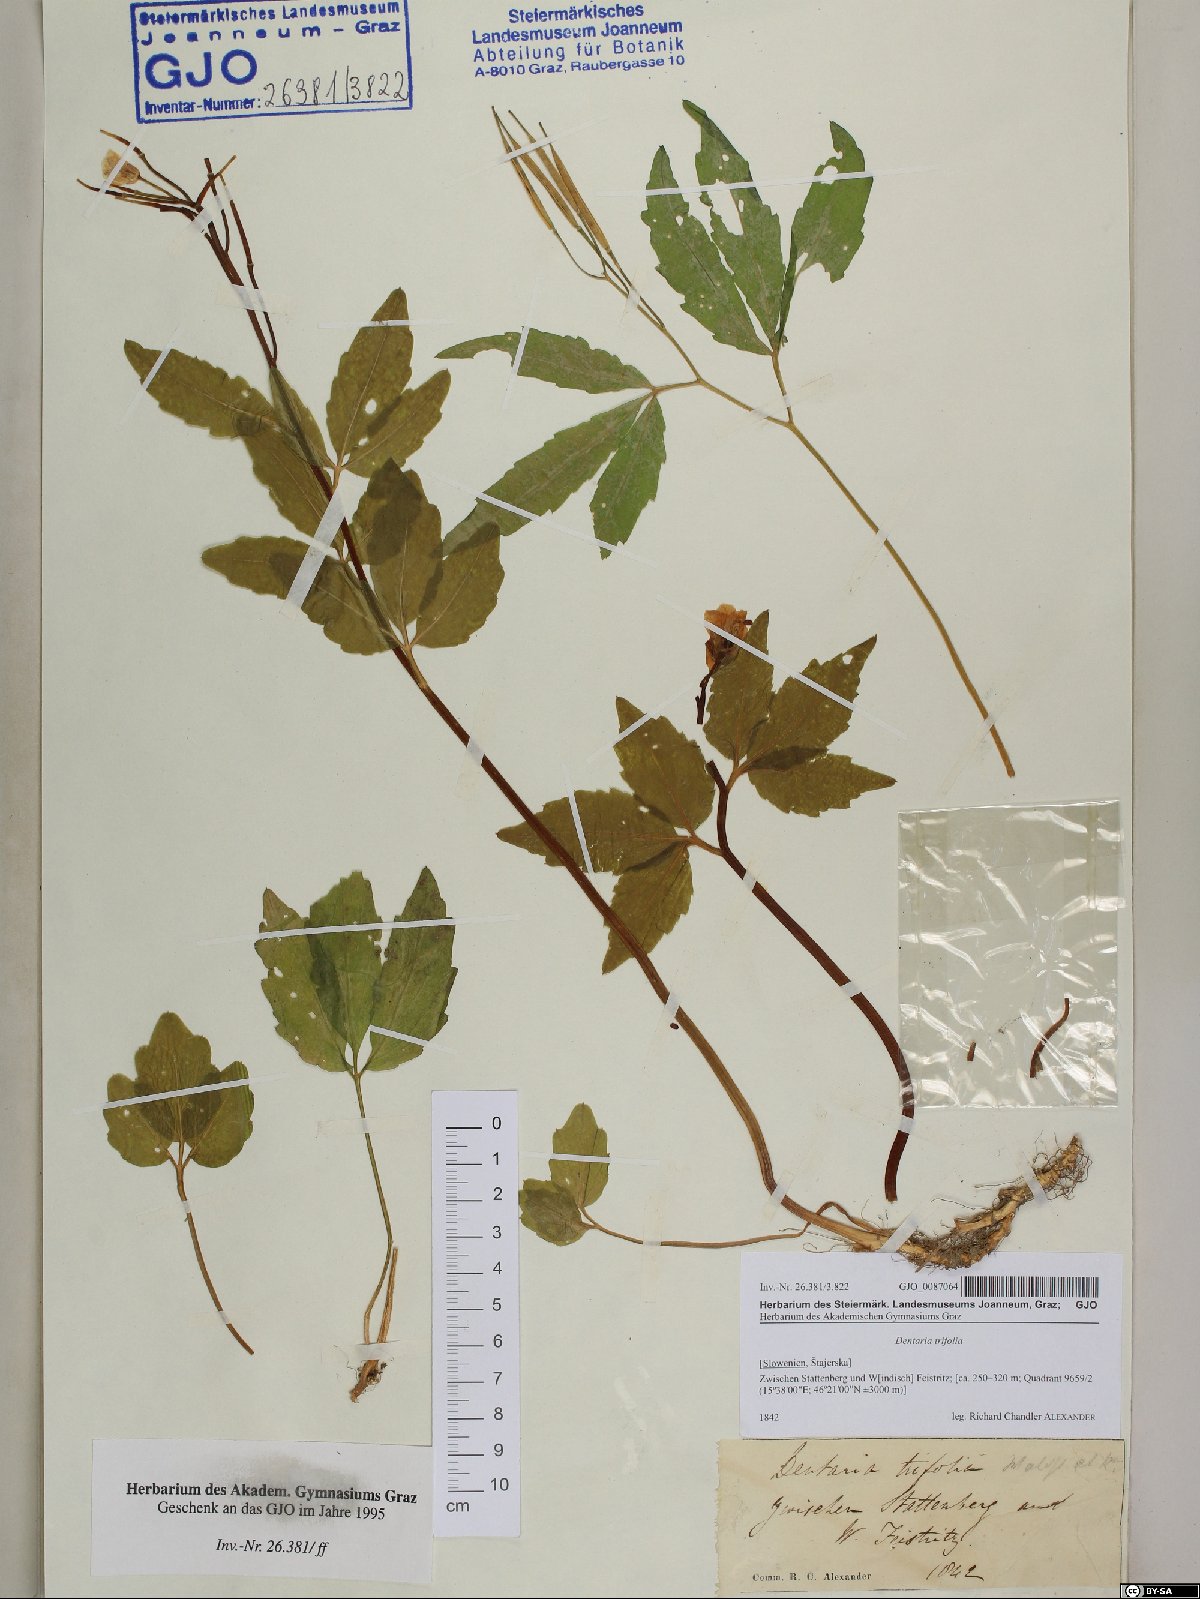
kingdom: Plantae
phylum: Tracheophyta
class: Magnoliopsida
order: Brassicales
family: Brassicaceae
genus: Cardamine
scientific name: Cardamine waldsteinii
